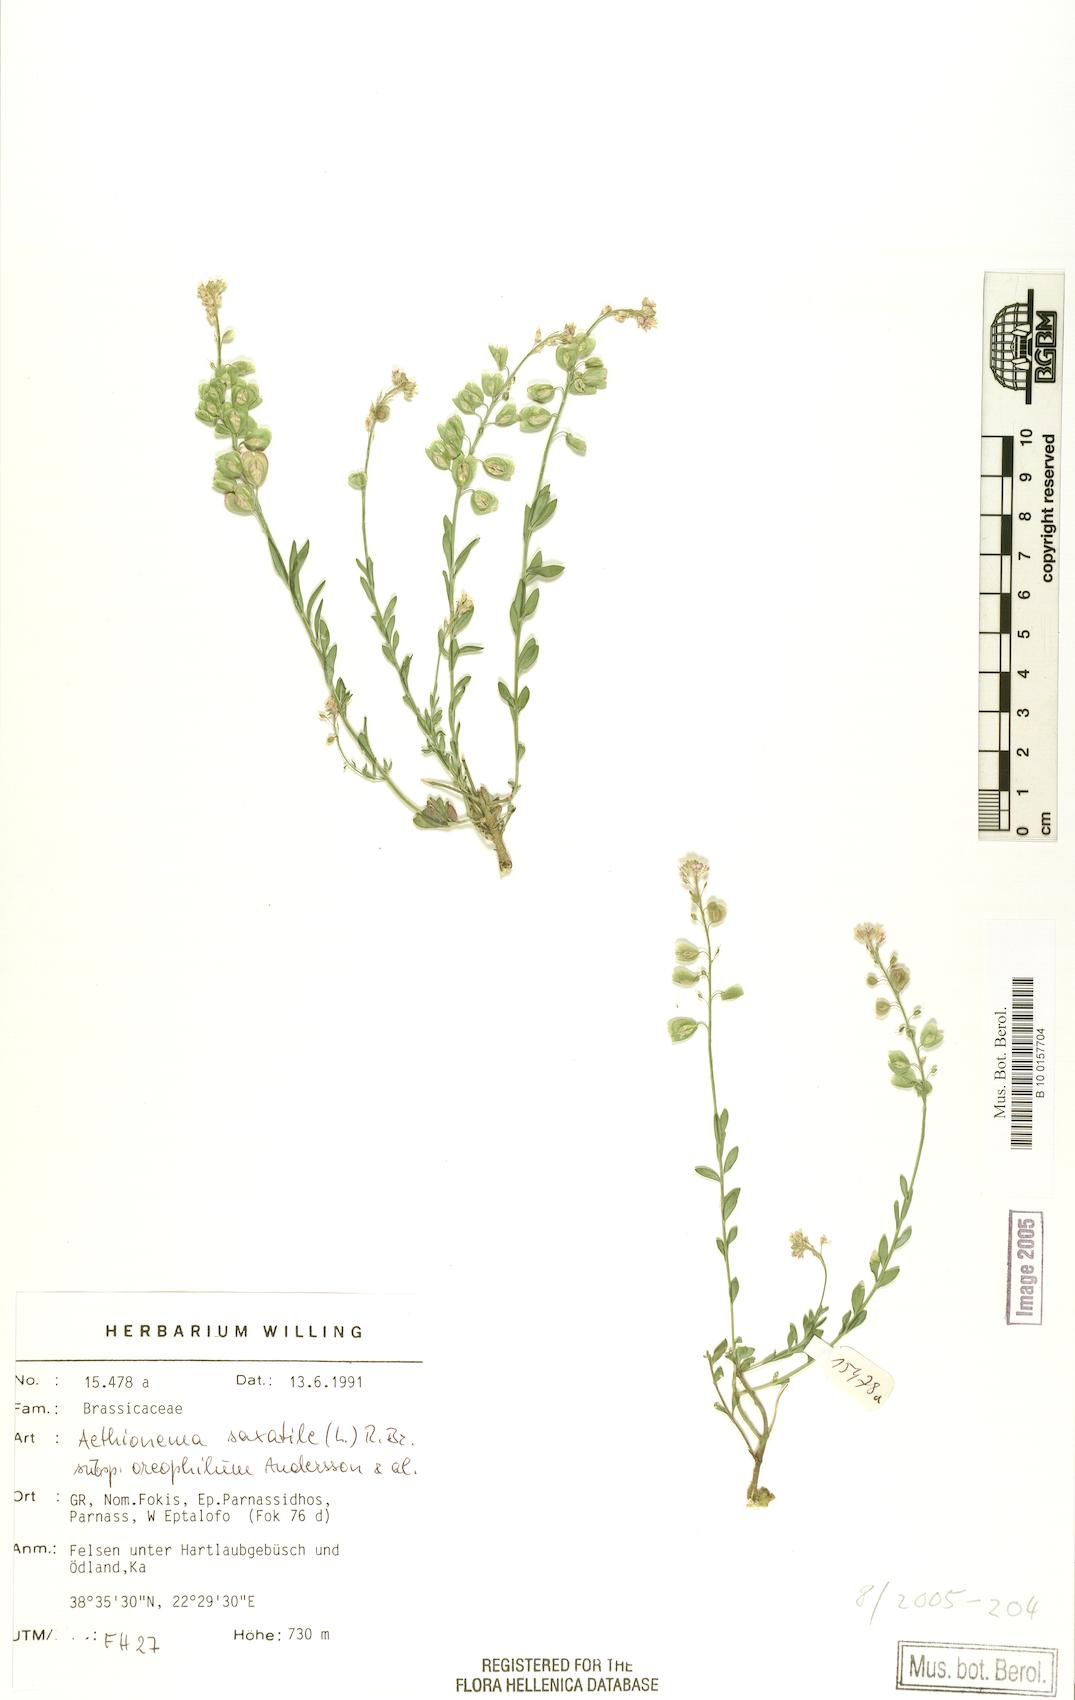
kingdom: Plantae
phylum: Tracheophyta
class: Magnoliopsida
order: Brassicales
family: Brassicaceae
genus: Aethionema
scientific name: Aethionema saxatile
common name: Burnt candytuft
